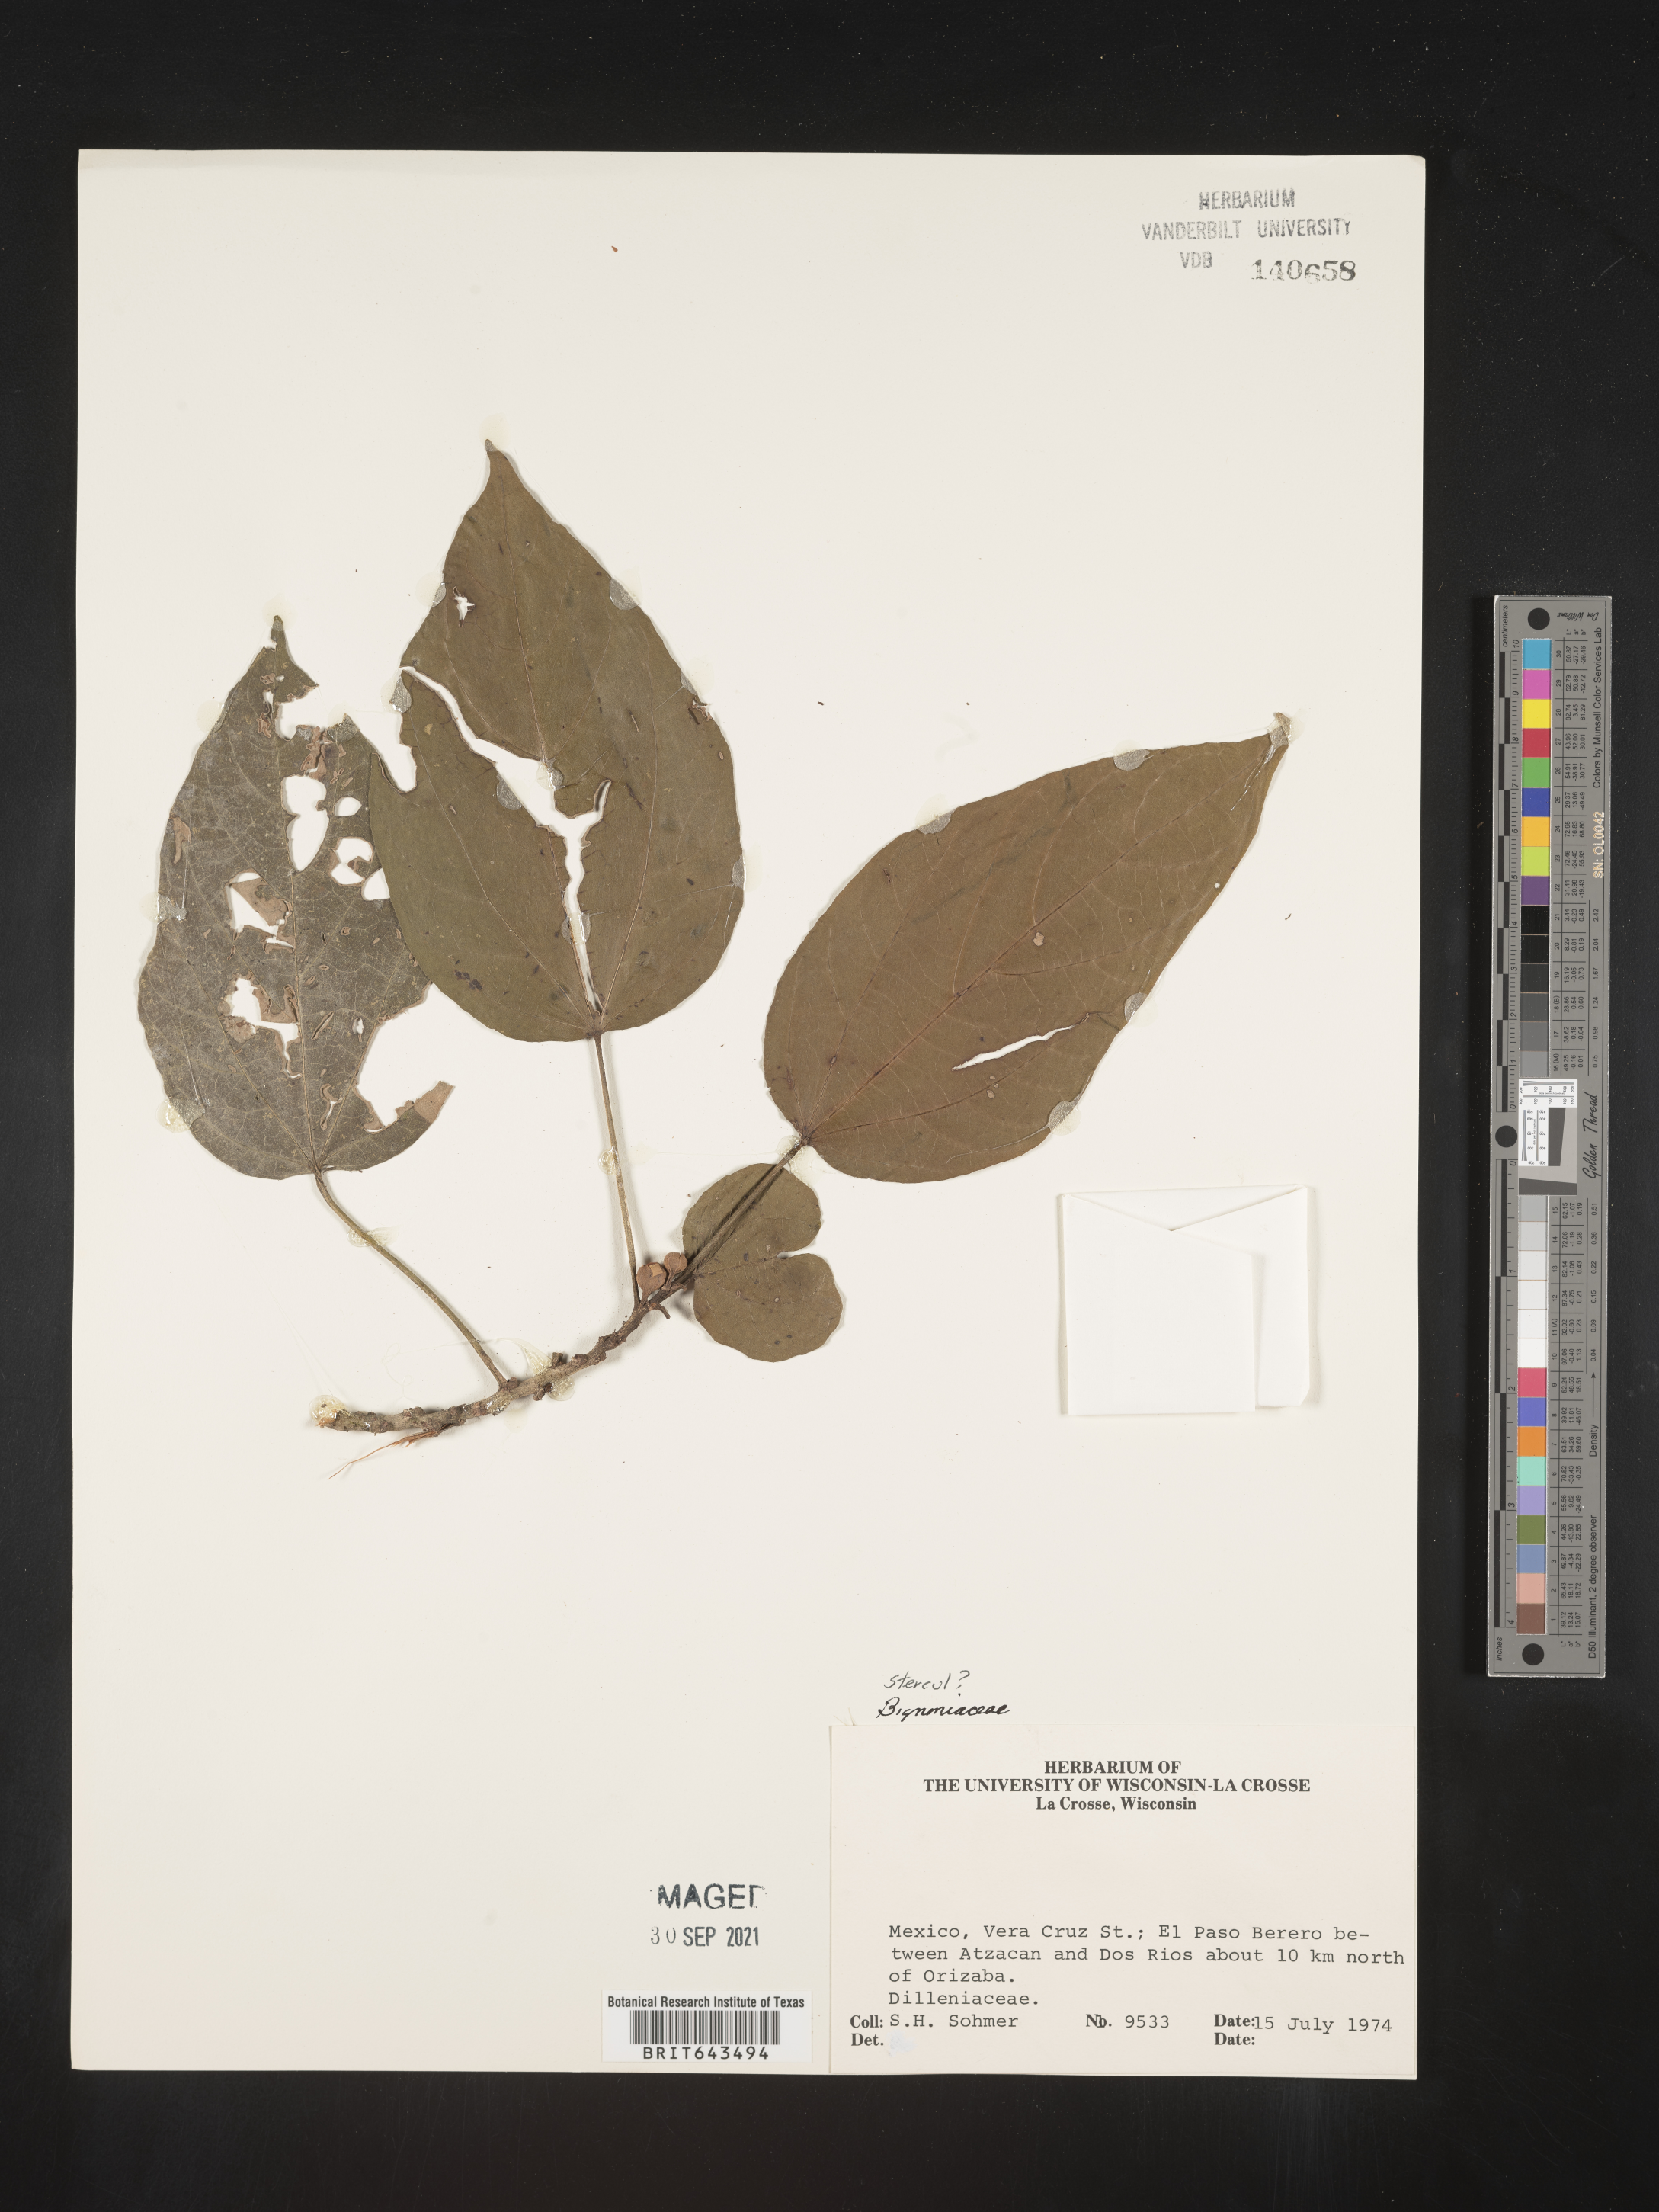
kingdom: Plantae
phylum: Tracheophyta
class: Magnoliopsida
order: Malvales
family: Sterculiaceae
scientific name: Sterculiaceae
